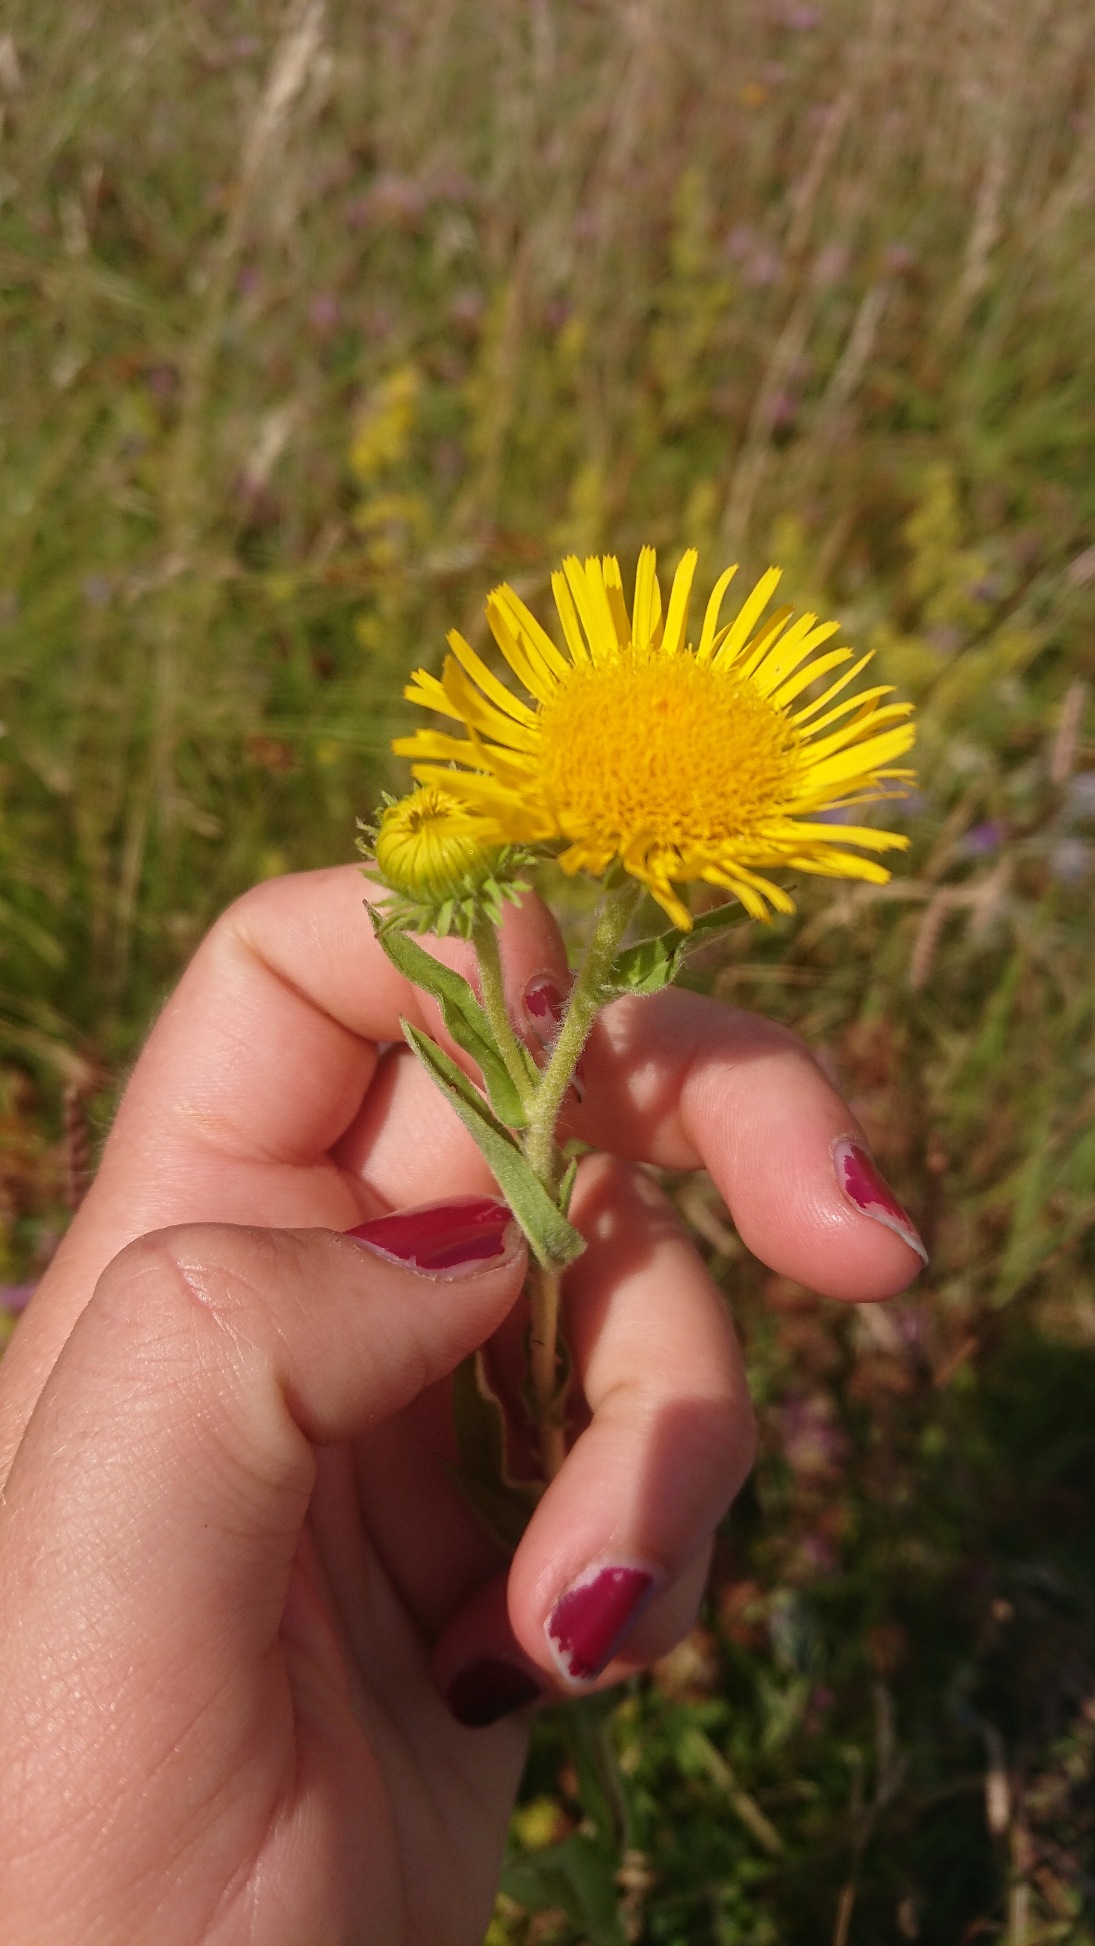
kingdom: Plantae
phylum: Tracheophyta
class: Magnoliopsida
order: Asterales
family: Asteraceae
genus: Pentanema
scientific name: Pentanema britannicum
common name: Soløje-alant
